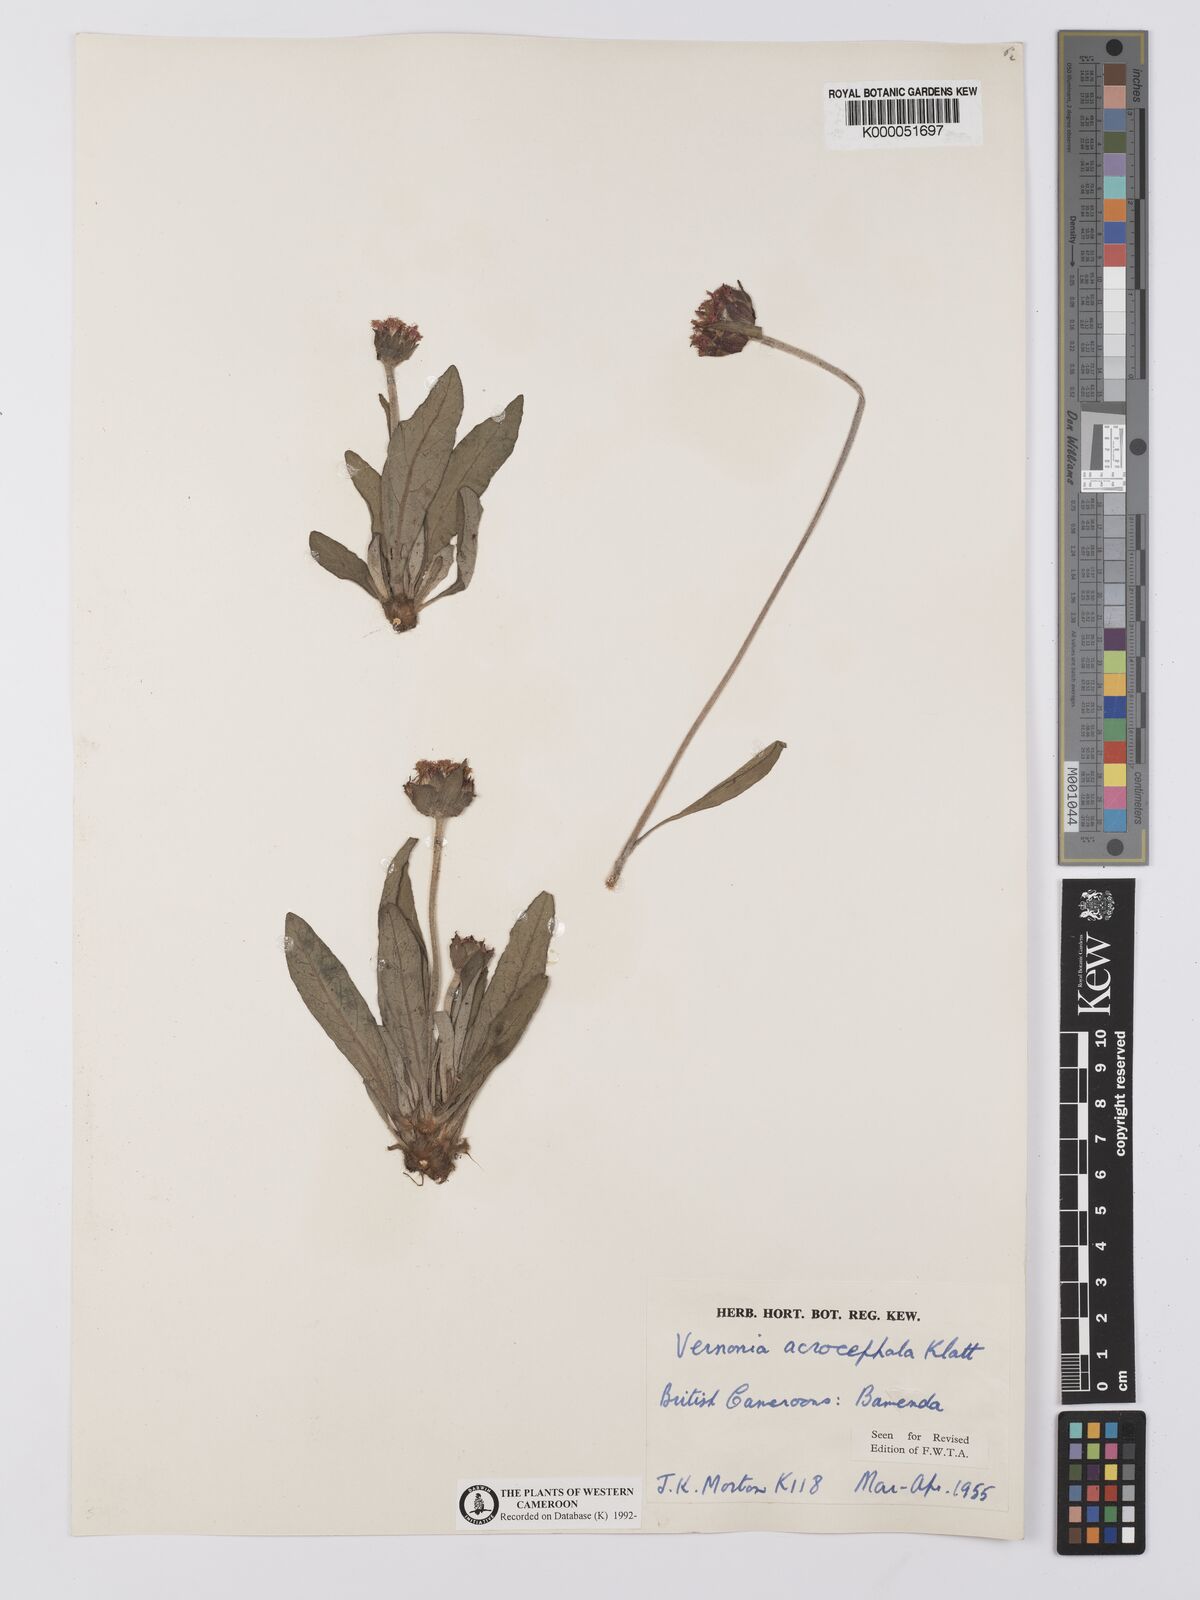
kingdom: Plantae
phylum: Tracheophyta
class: Magnoliopsida
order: Asterales
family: Asteraceae
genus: Vernonella
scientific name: Vernonella acrocephala
